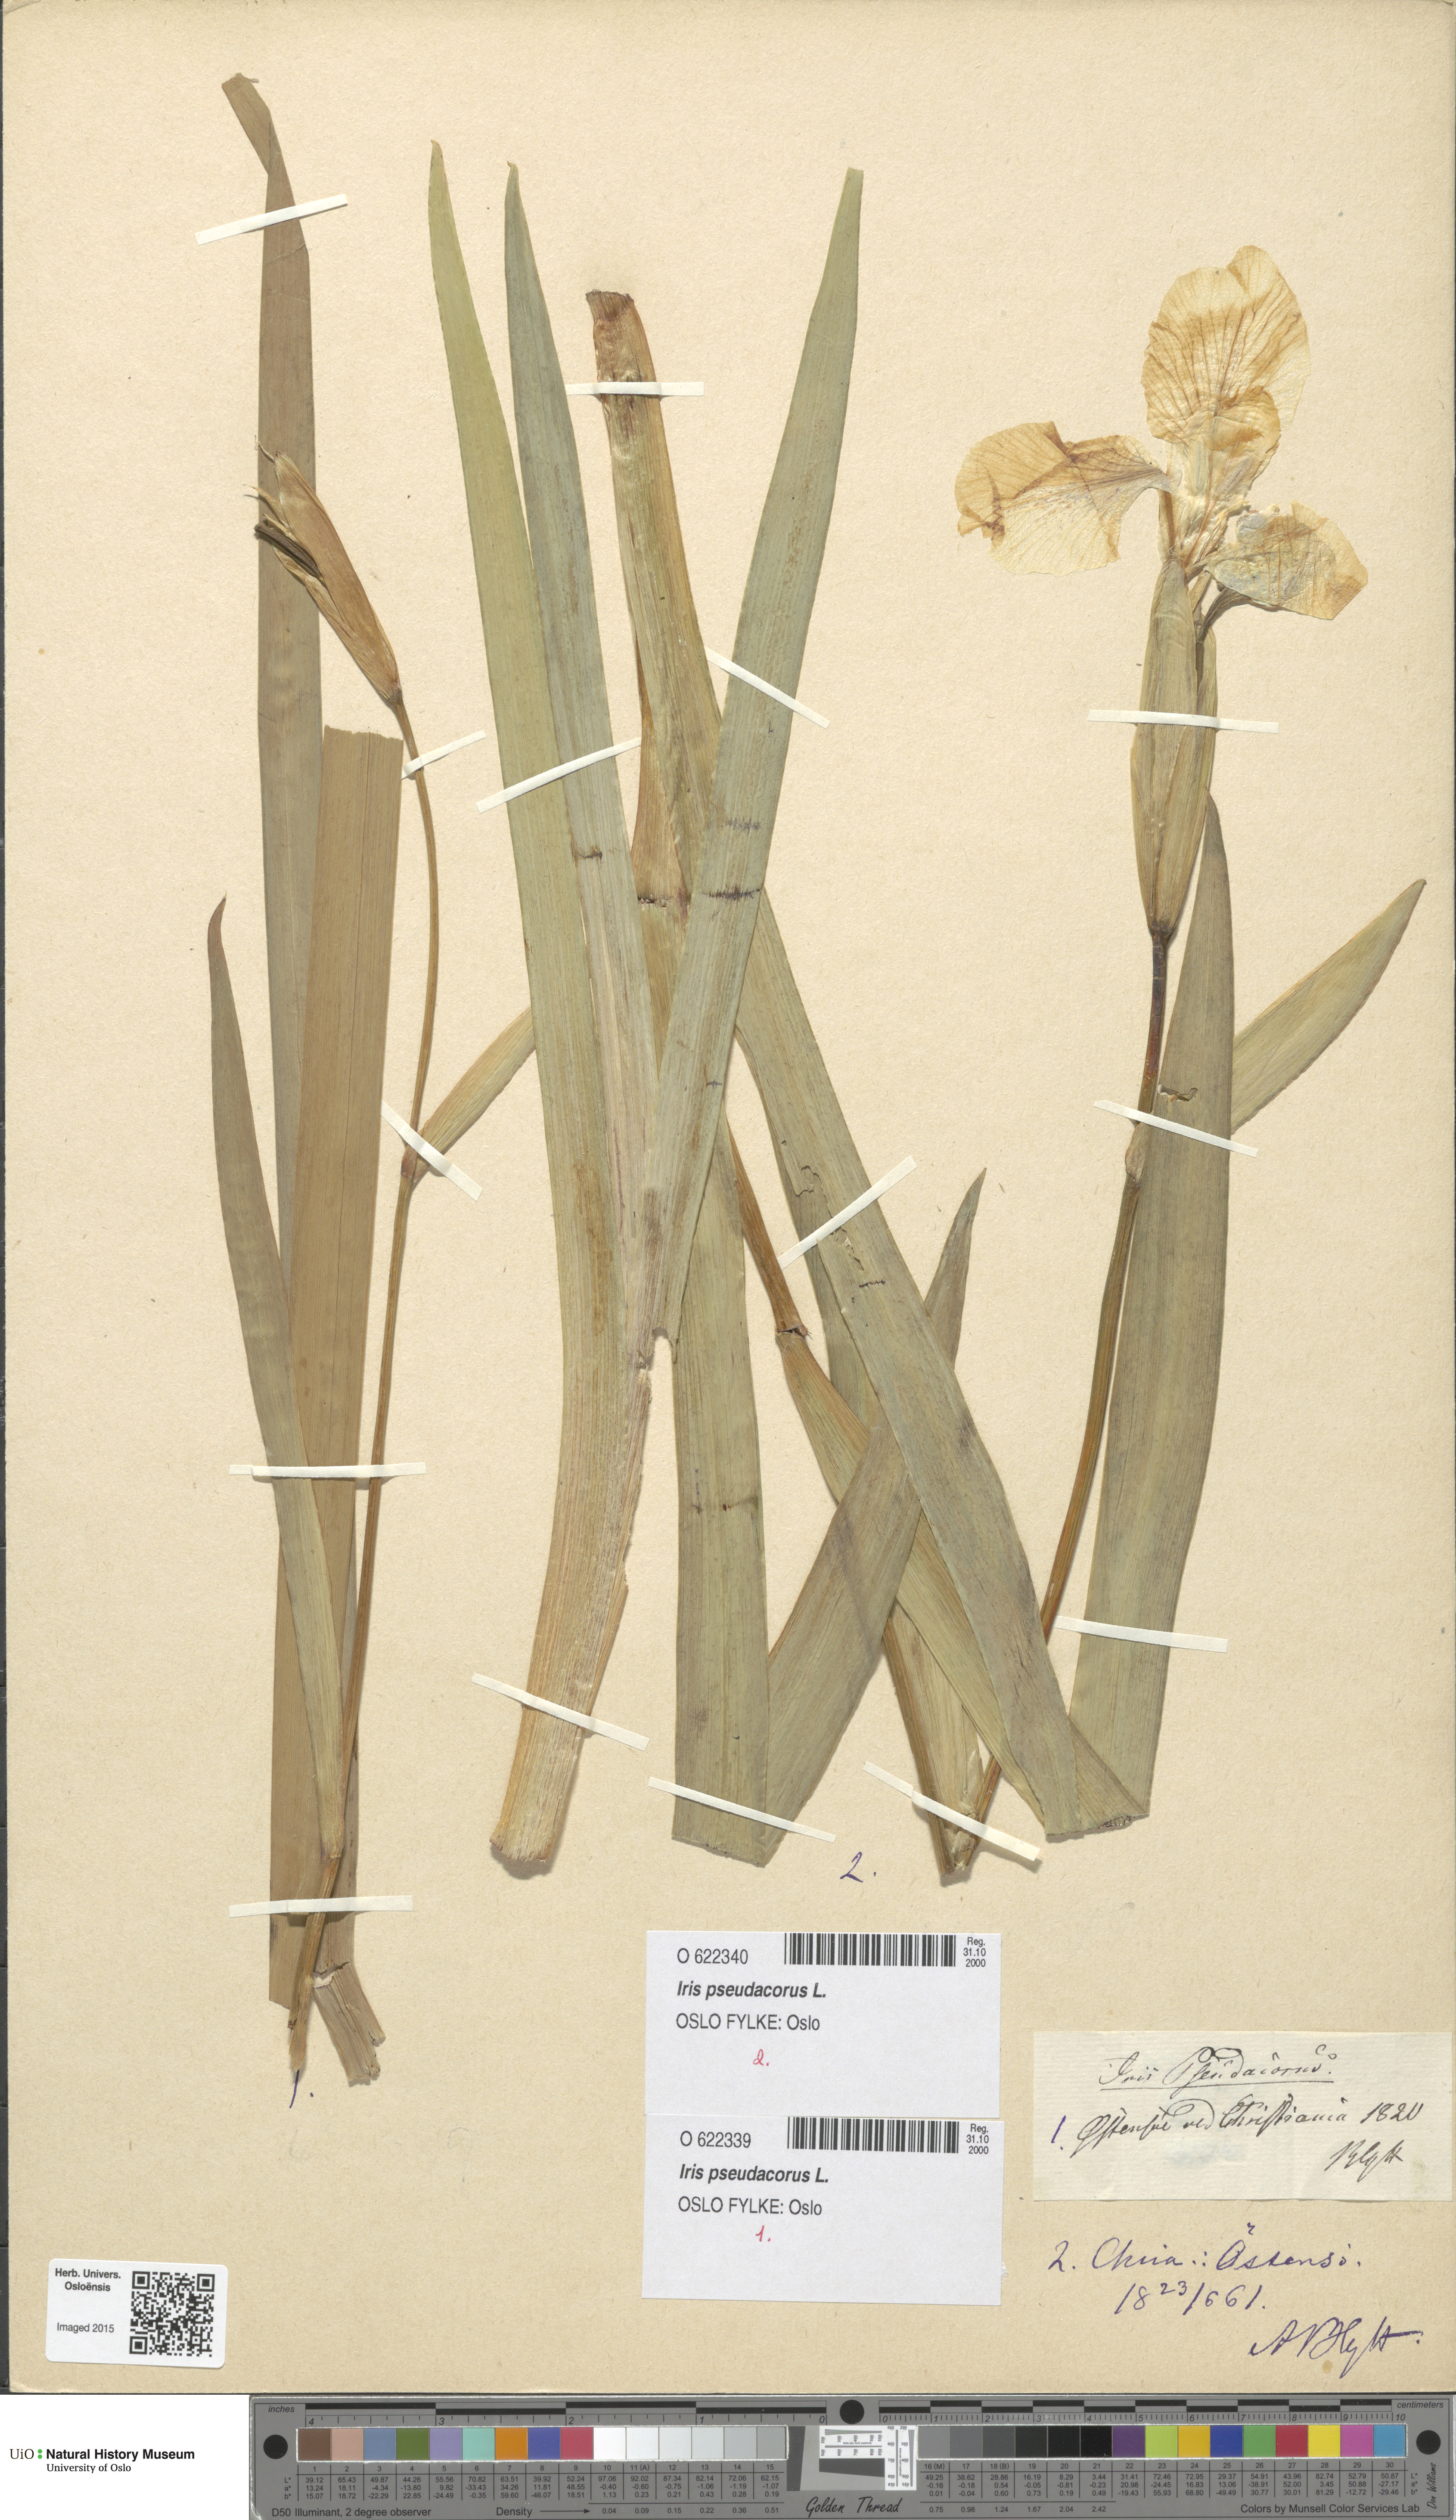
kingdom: Plantae
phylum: Tracheophyta
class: Liliopsida
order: Asparagales
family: Iridaceae
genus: Iris
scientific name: Iris pseudacorus
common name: Yellow flag
